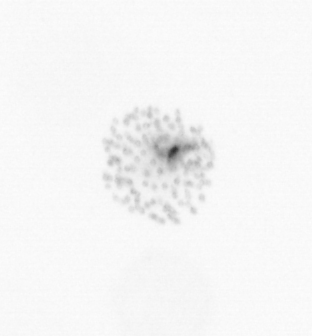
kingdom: Chromista
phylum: Ochrophyta
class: Bacillariophyceae
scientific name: Bacillariophyceae
